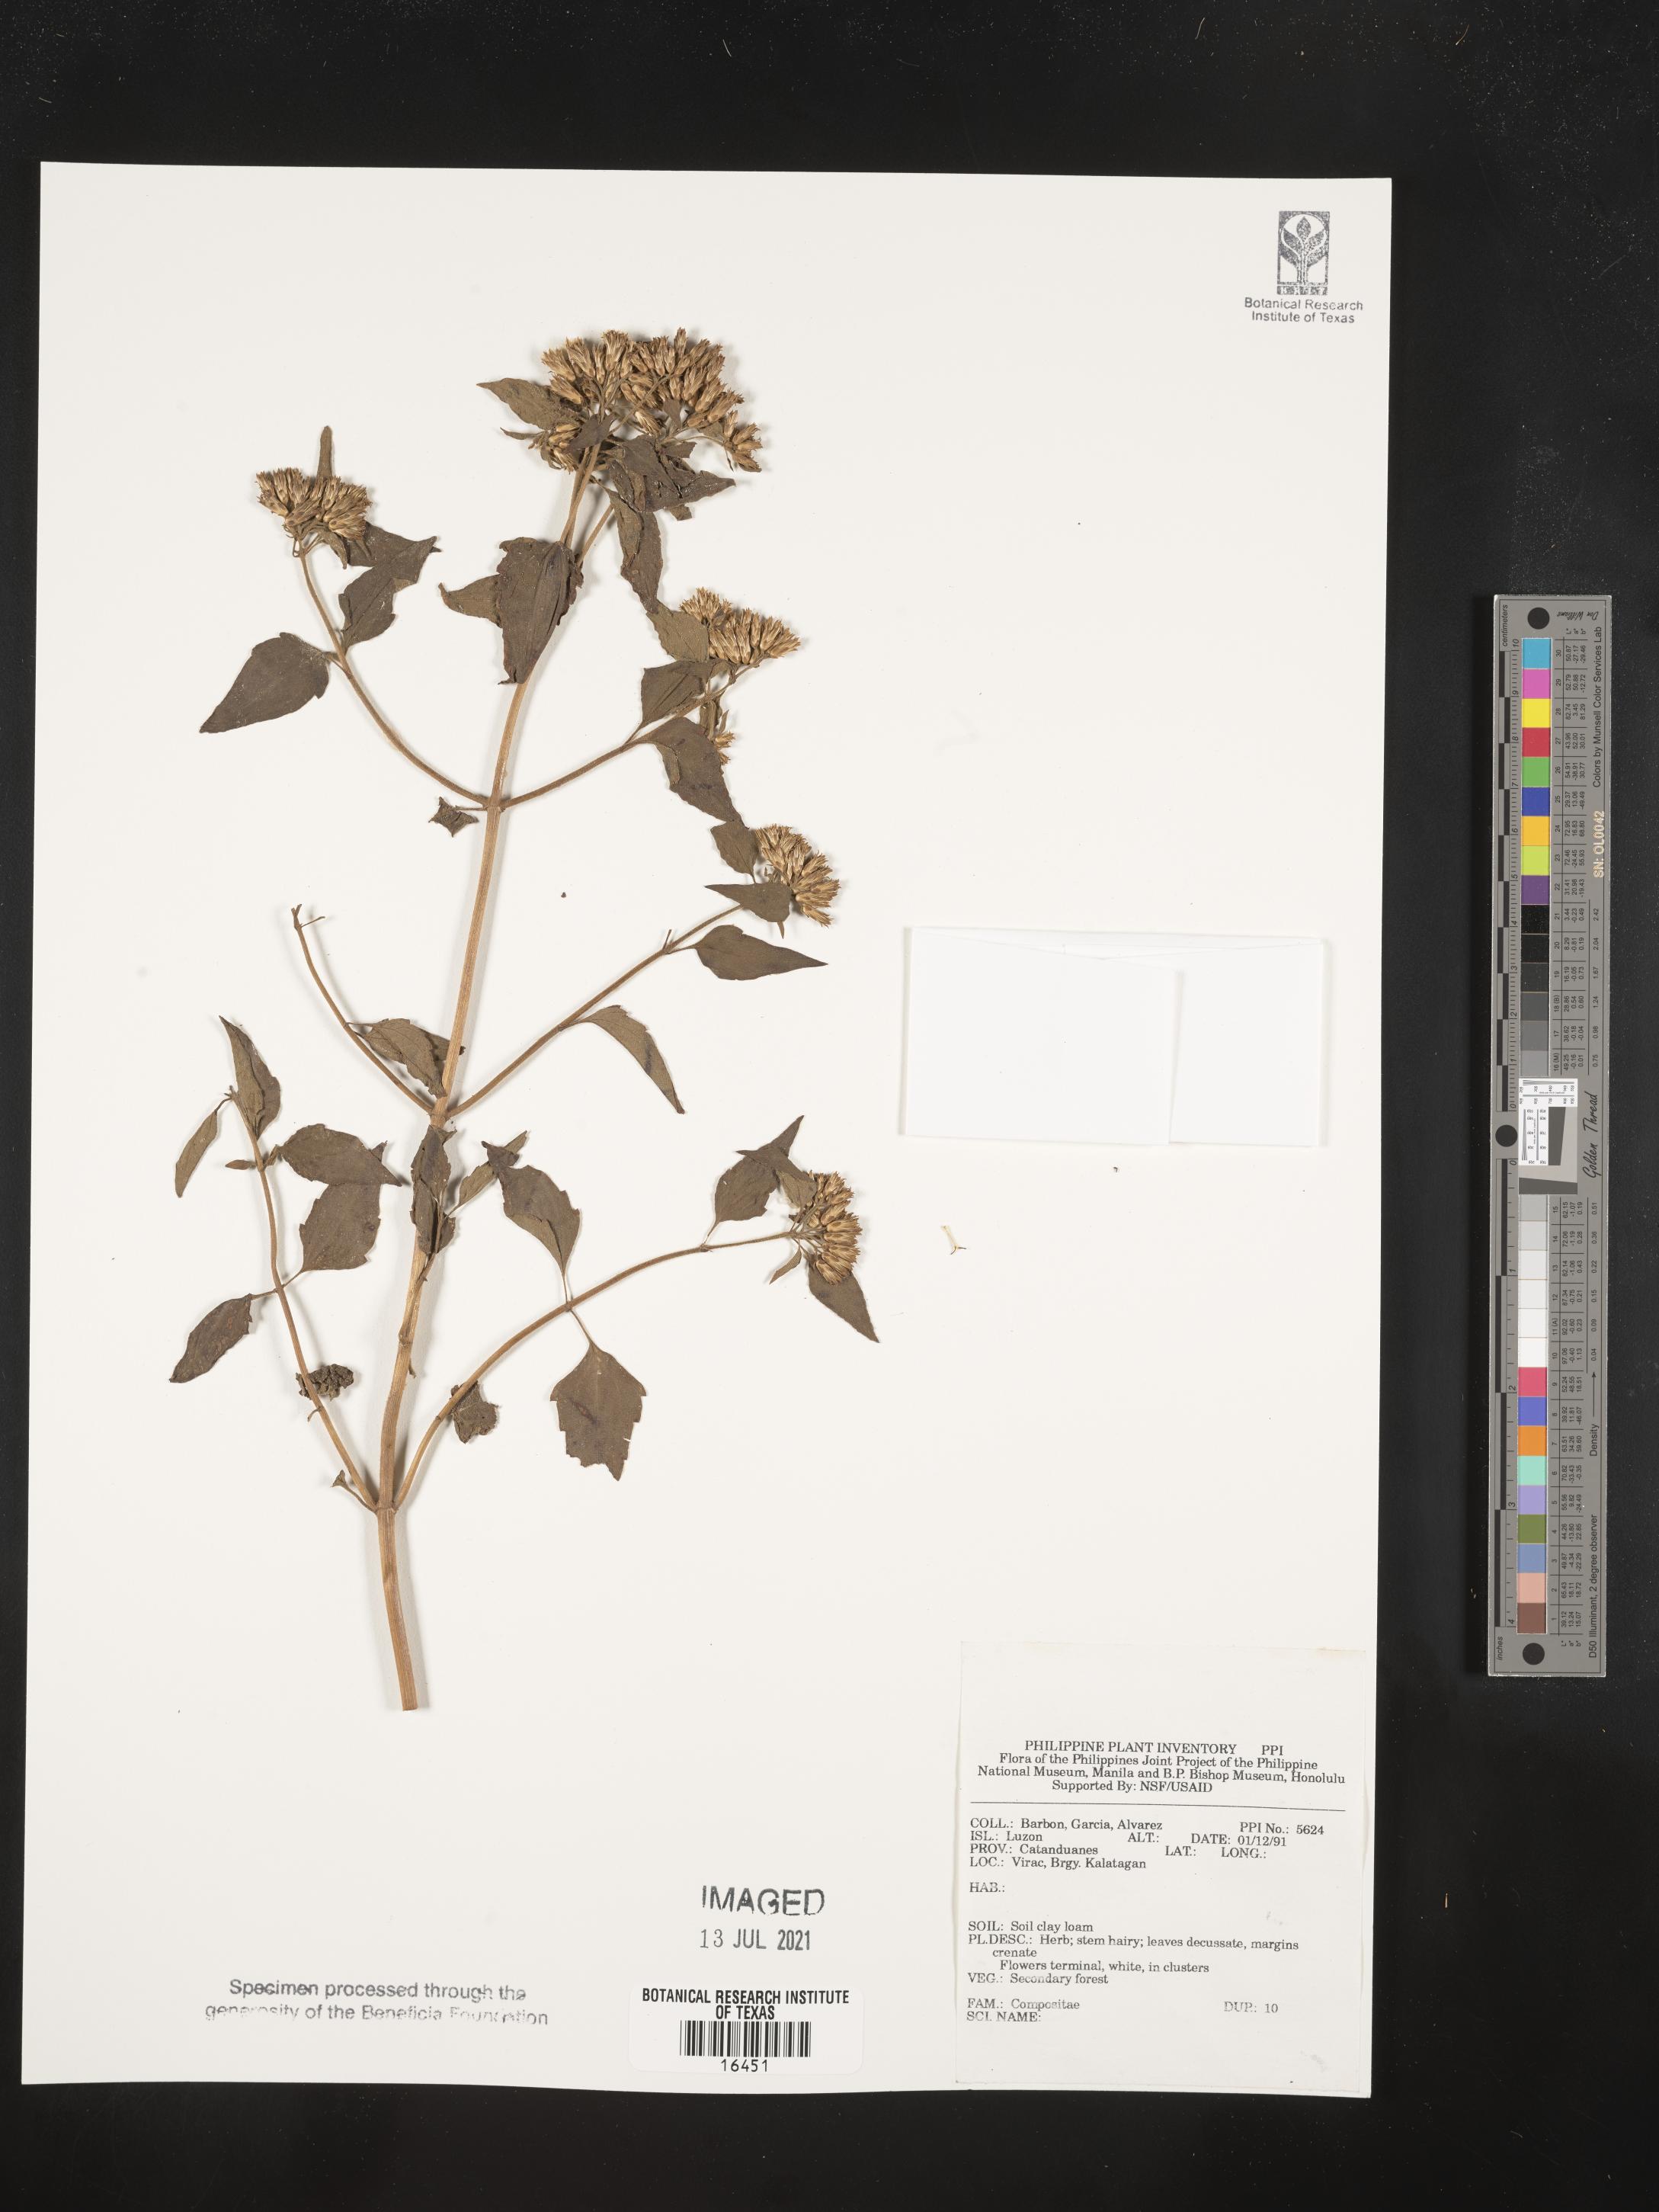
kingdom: Plantae
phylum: Tracheophyta
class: Magnoliopsida
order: Asterales
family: Asteraceae
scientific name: Asteraceae
